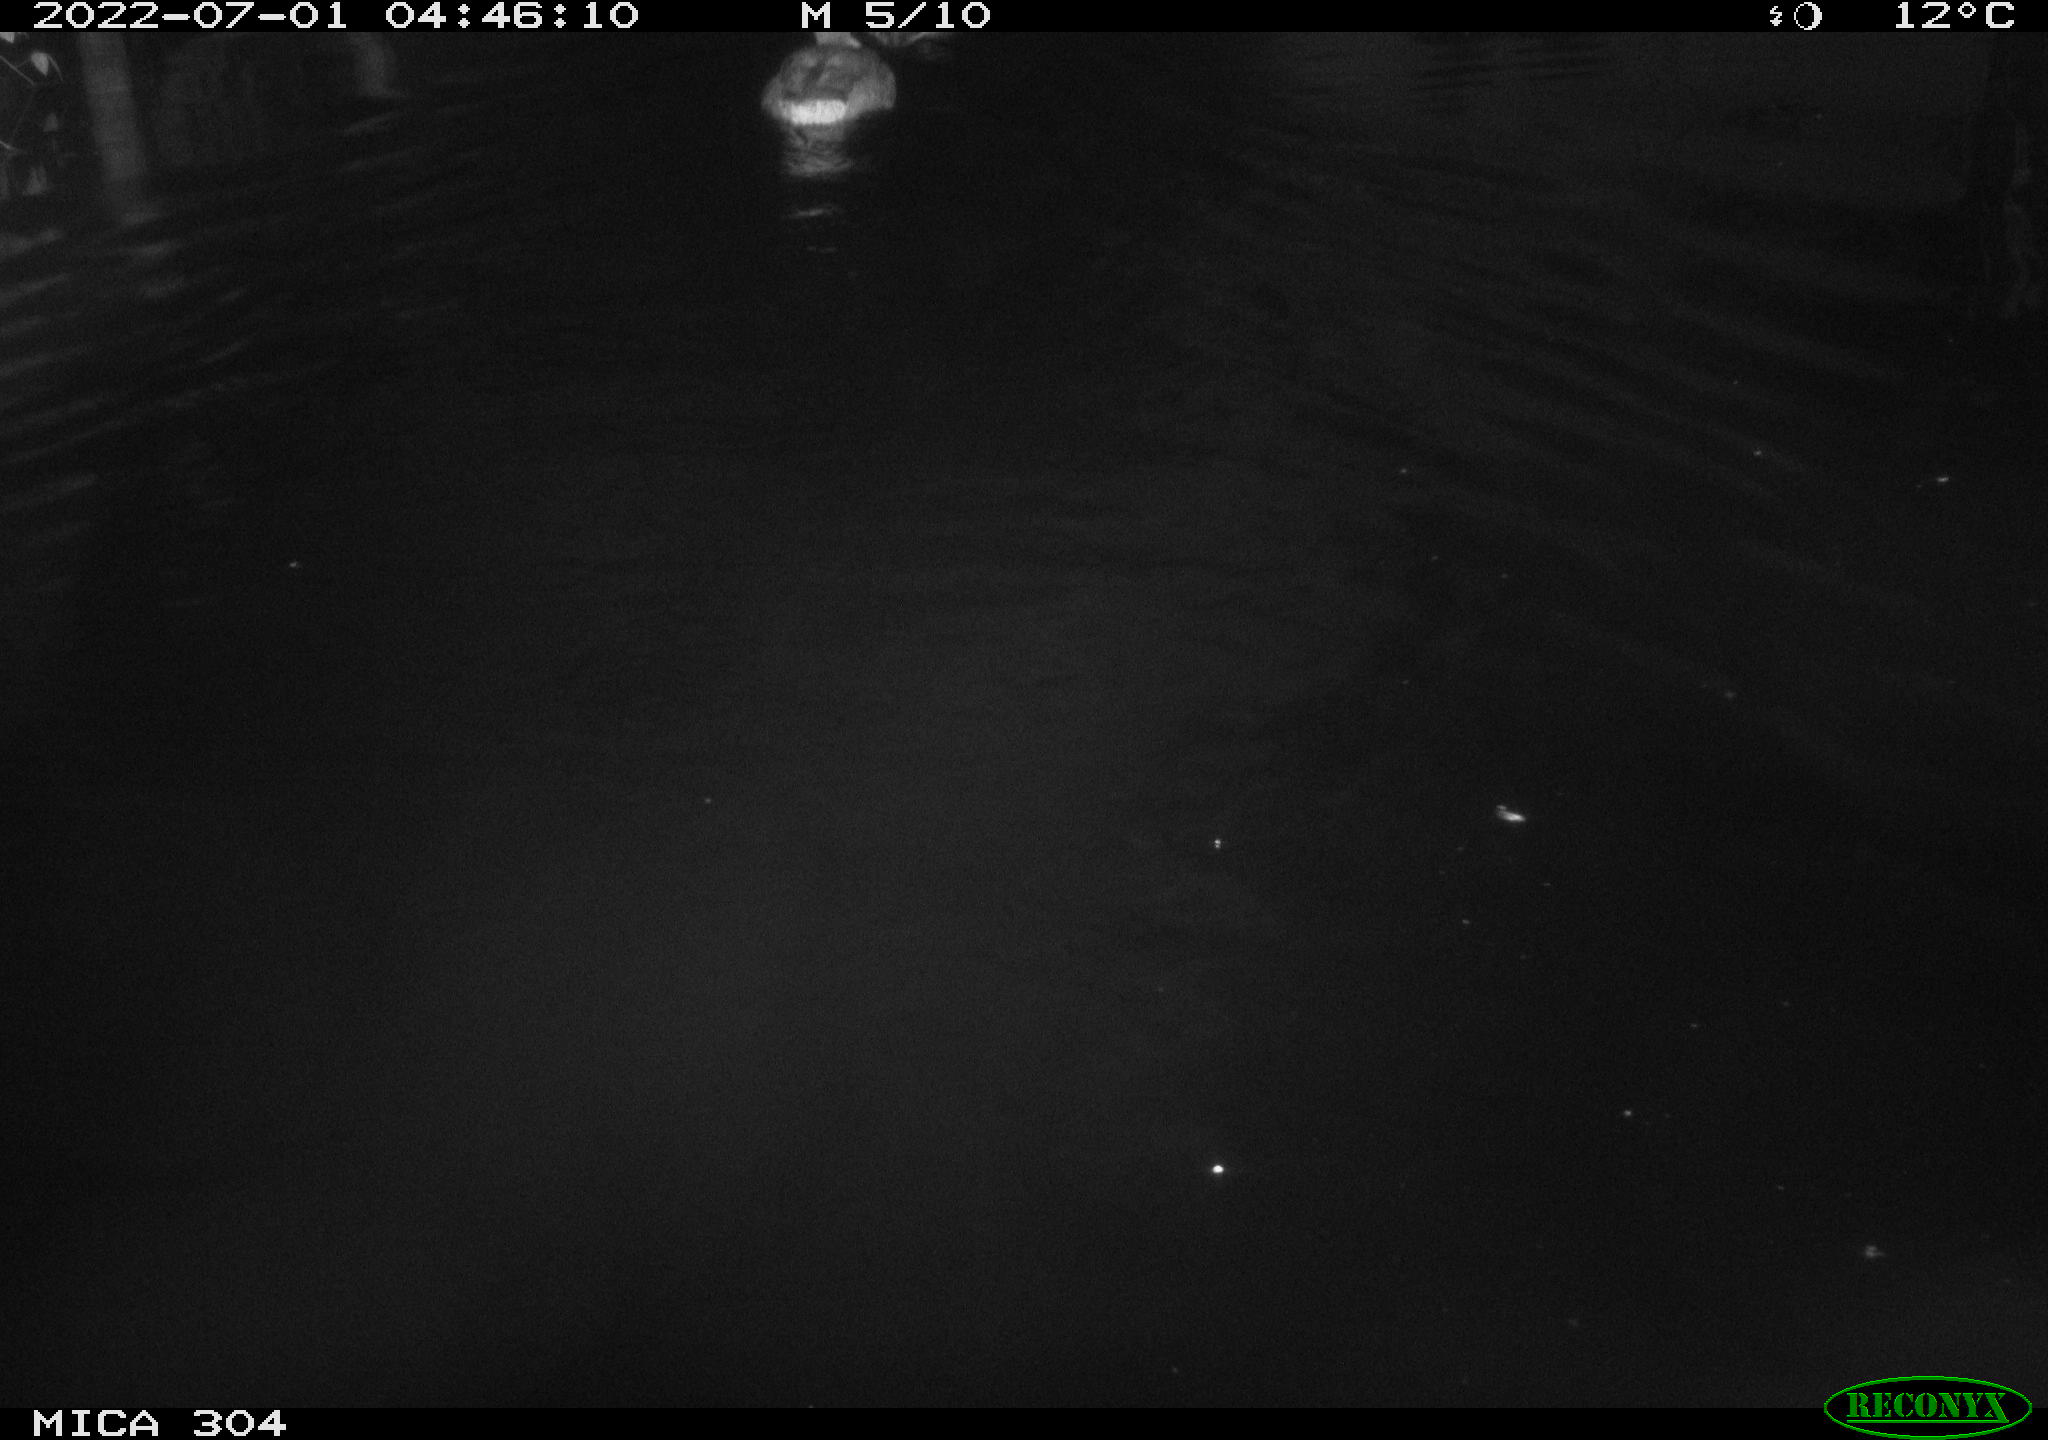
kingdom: Animalia
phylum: Chordata
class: Aves
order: Anseriformes
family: Anatidae
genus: Anas
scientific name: Anas platyrhynchos
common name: Mallard
